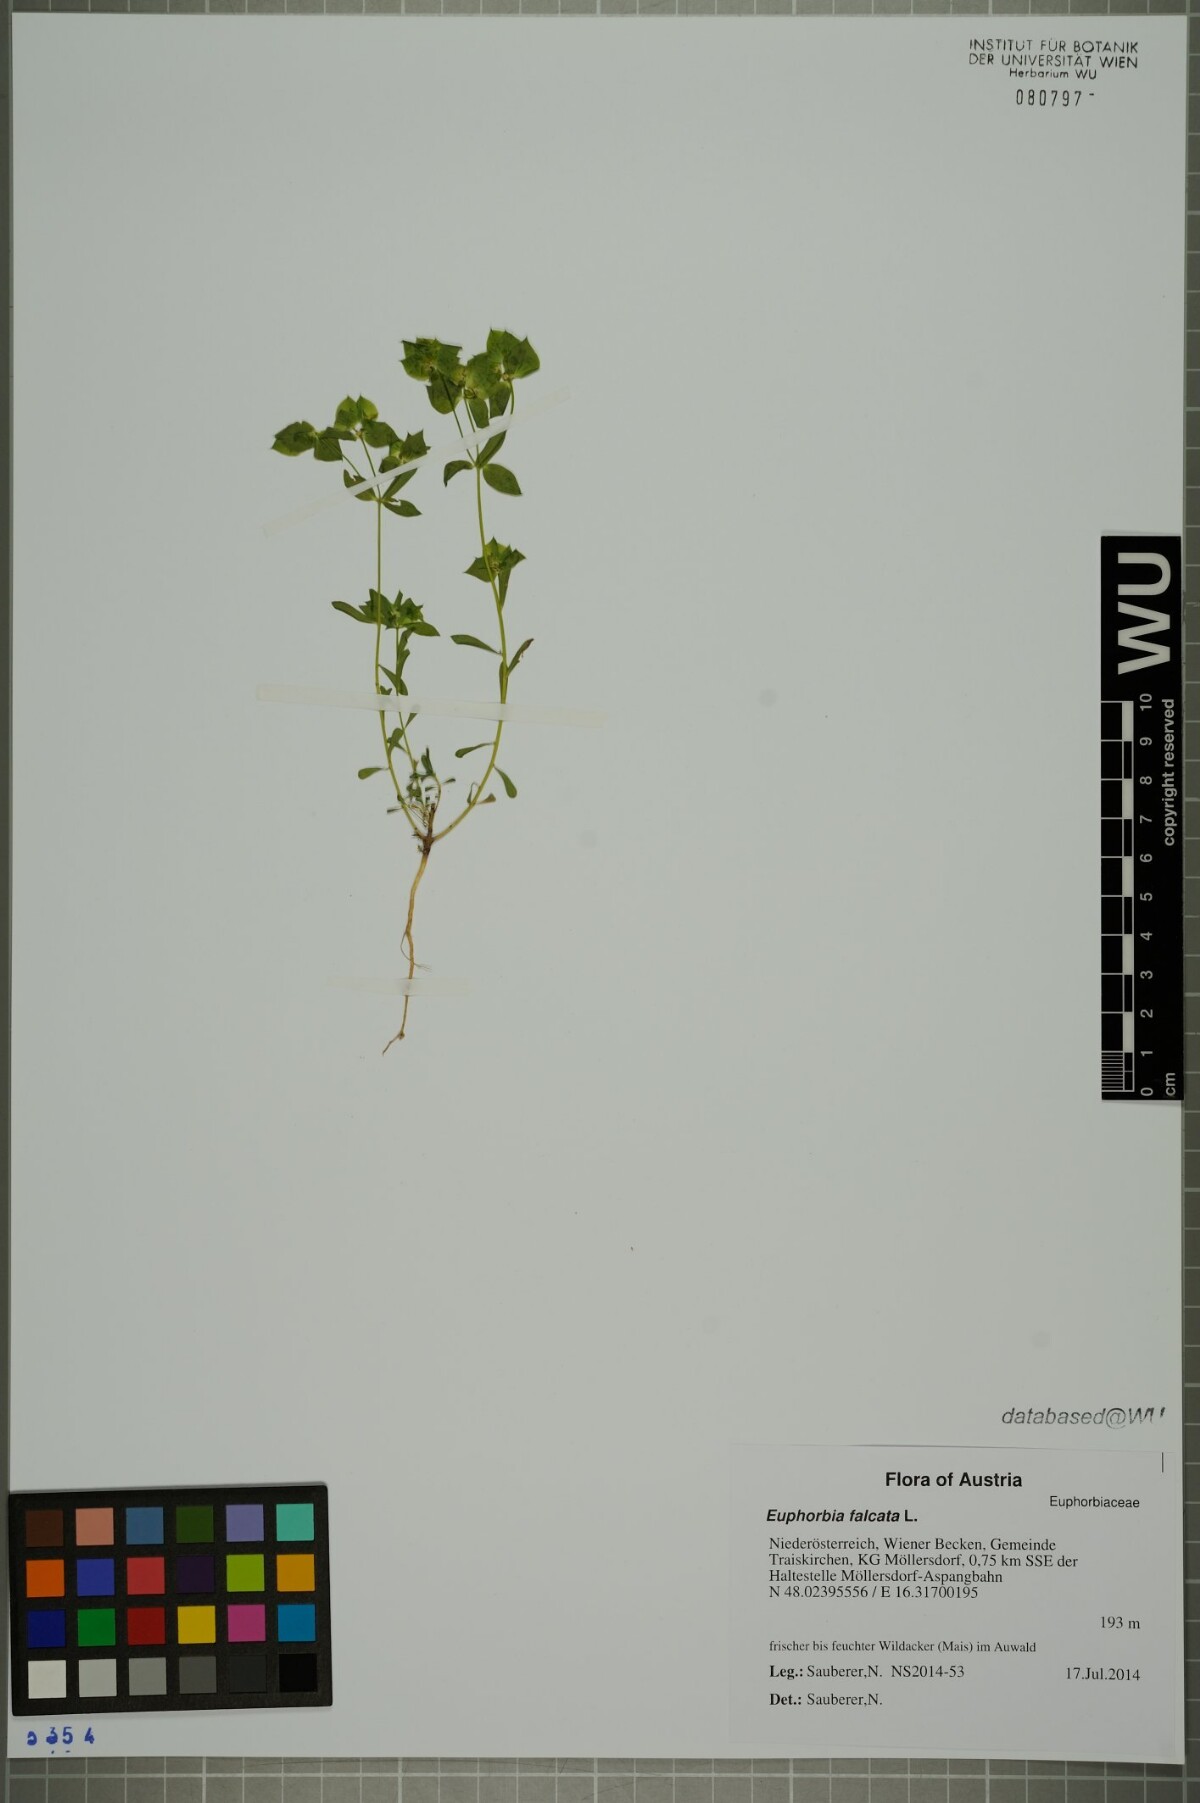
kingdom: Plantae
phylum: Tracheophyta
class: Magnoliopsida
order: Malpighiales
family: Euphorbiaceae
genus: Euphorbia
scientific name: Euphorbia falcata
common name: Sickle spurge
